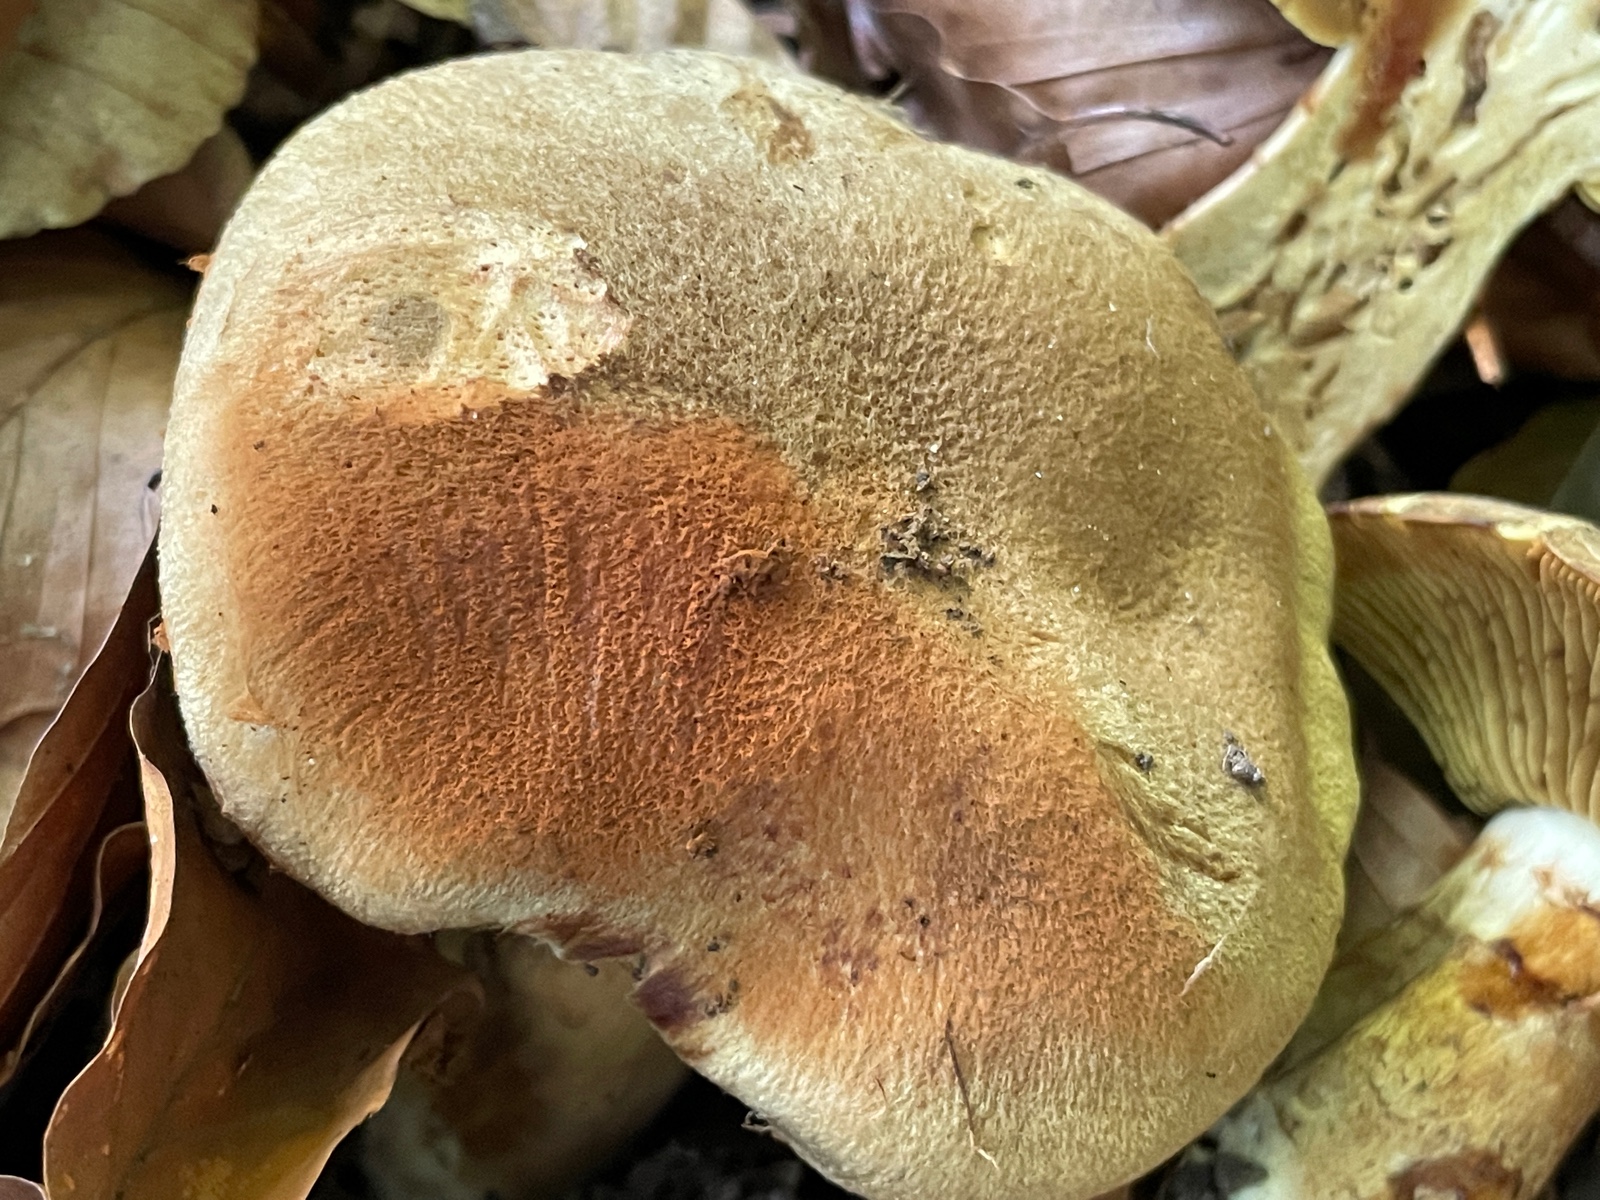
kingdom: Fungi
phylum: Basidiomycota
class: Agaricomycetes
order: Agaricales
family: Cortinariaceae
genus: Cortinarius
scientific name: Cortinarius subcotoneus
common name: gyldenbladet slørhat
